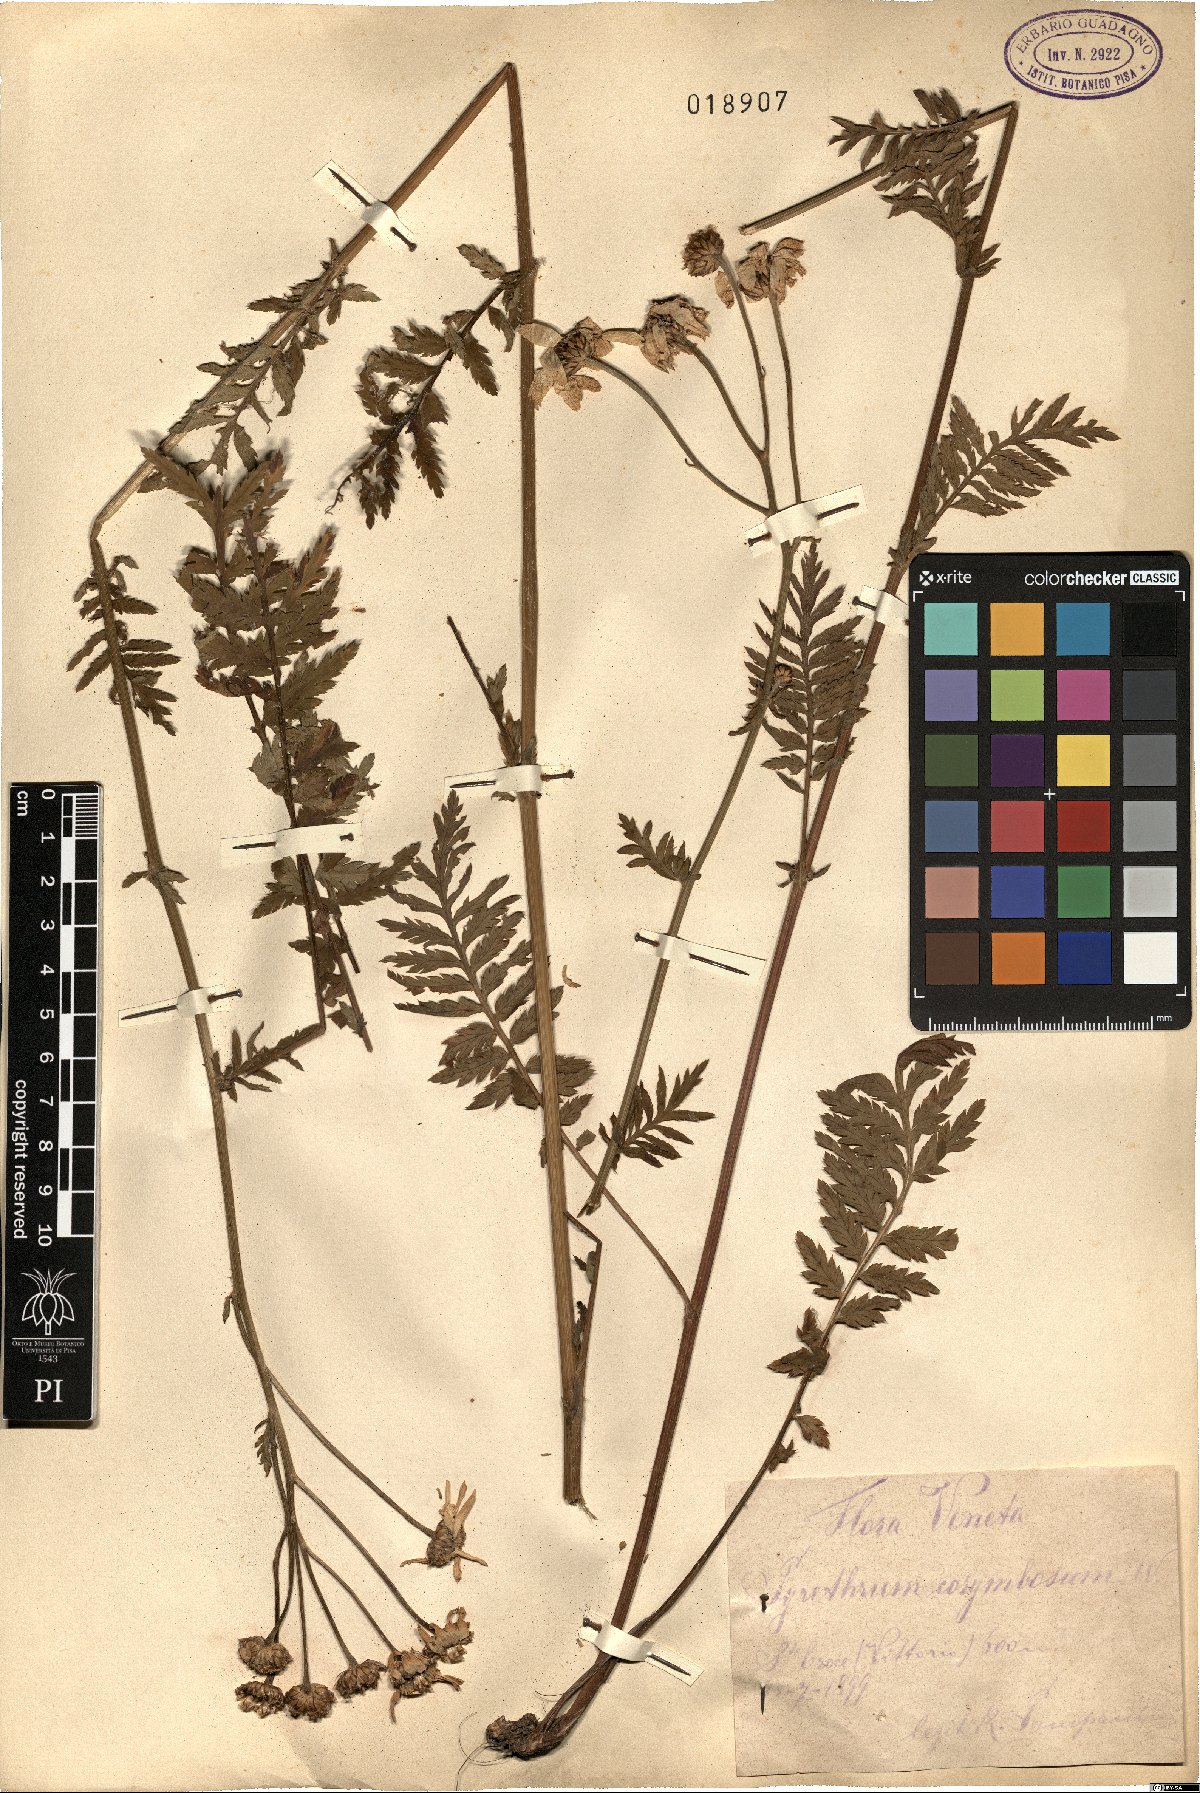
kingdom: Plantae
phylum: Tracheophyta
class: Magnoliopsida
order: Asterales
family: Asteraceae
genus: Tanacetum
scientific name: Tanacetum corymbosum
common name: Scentless feverfew
